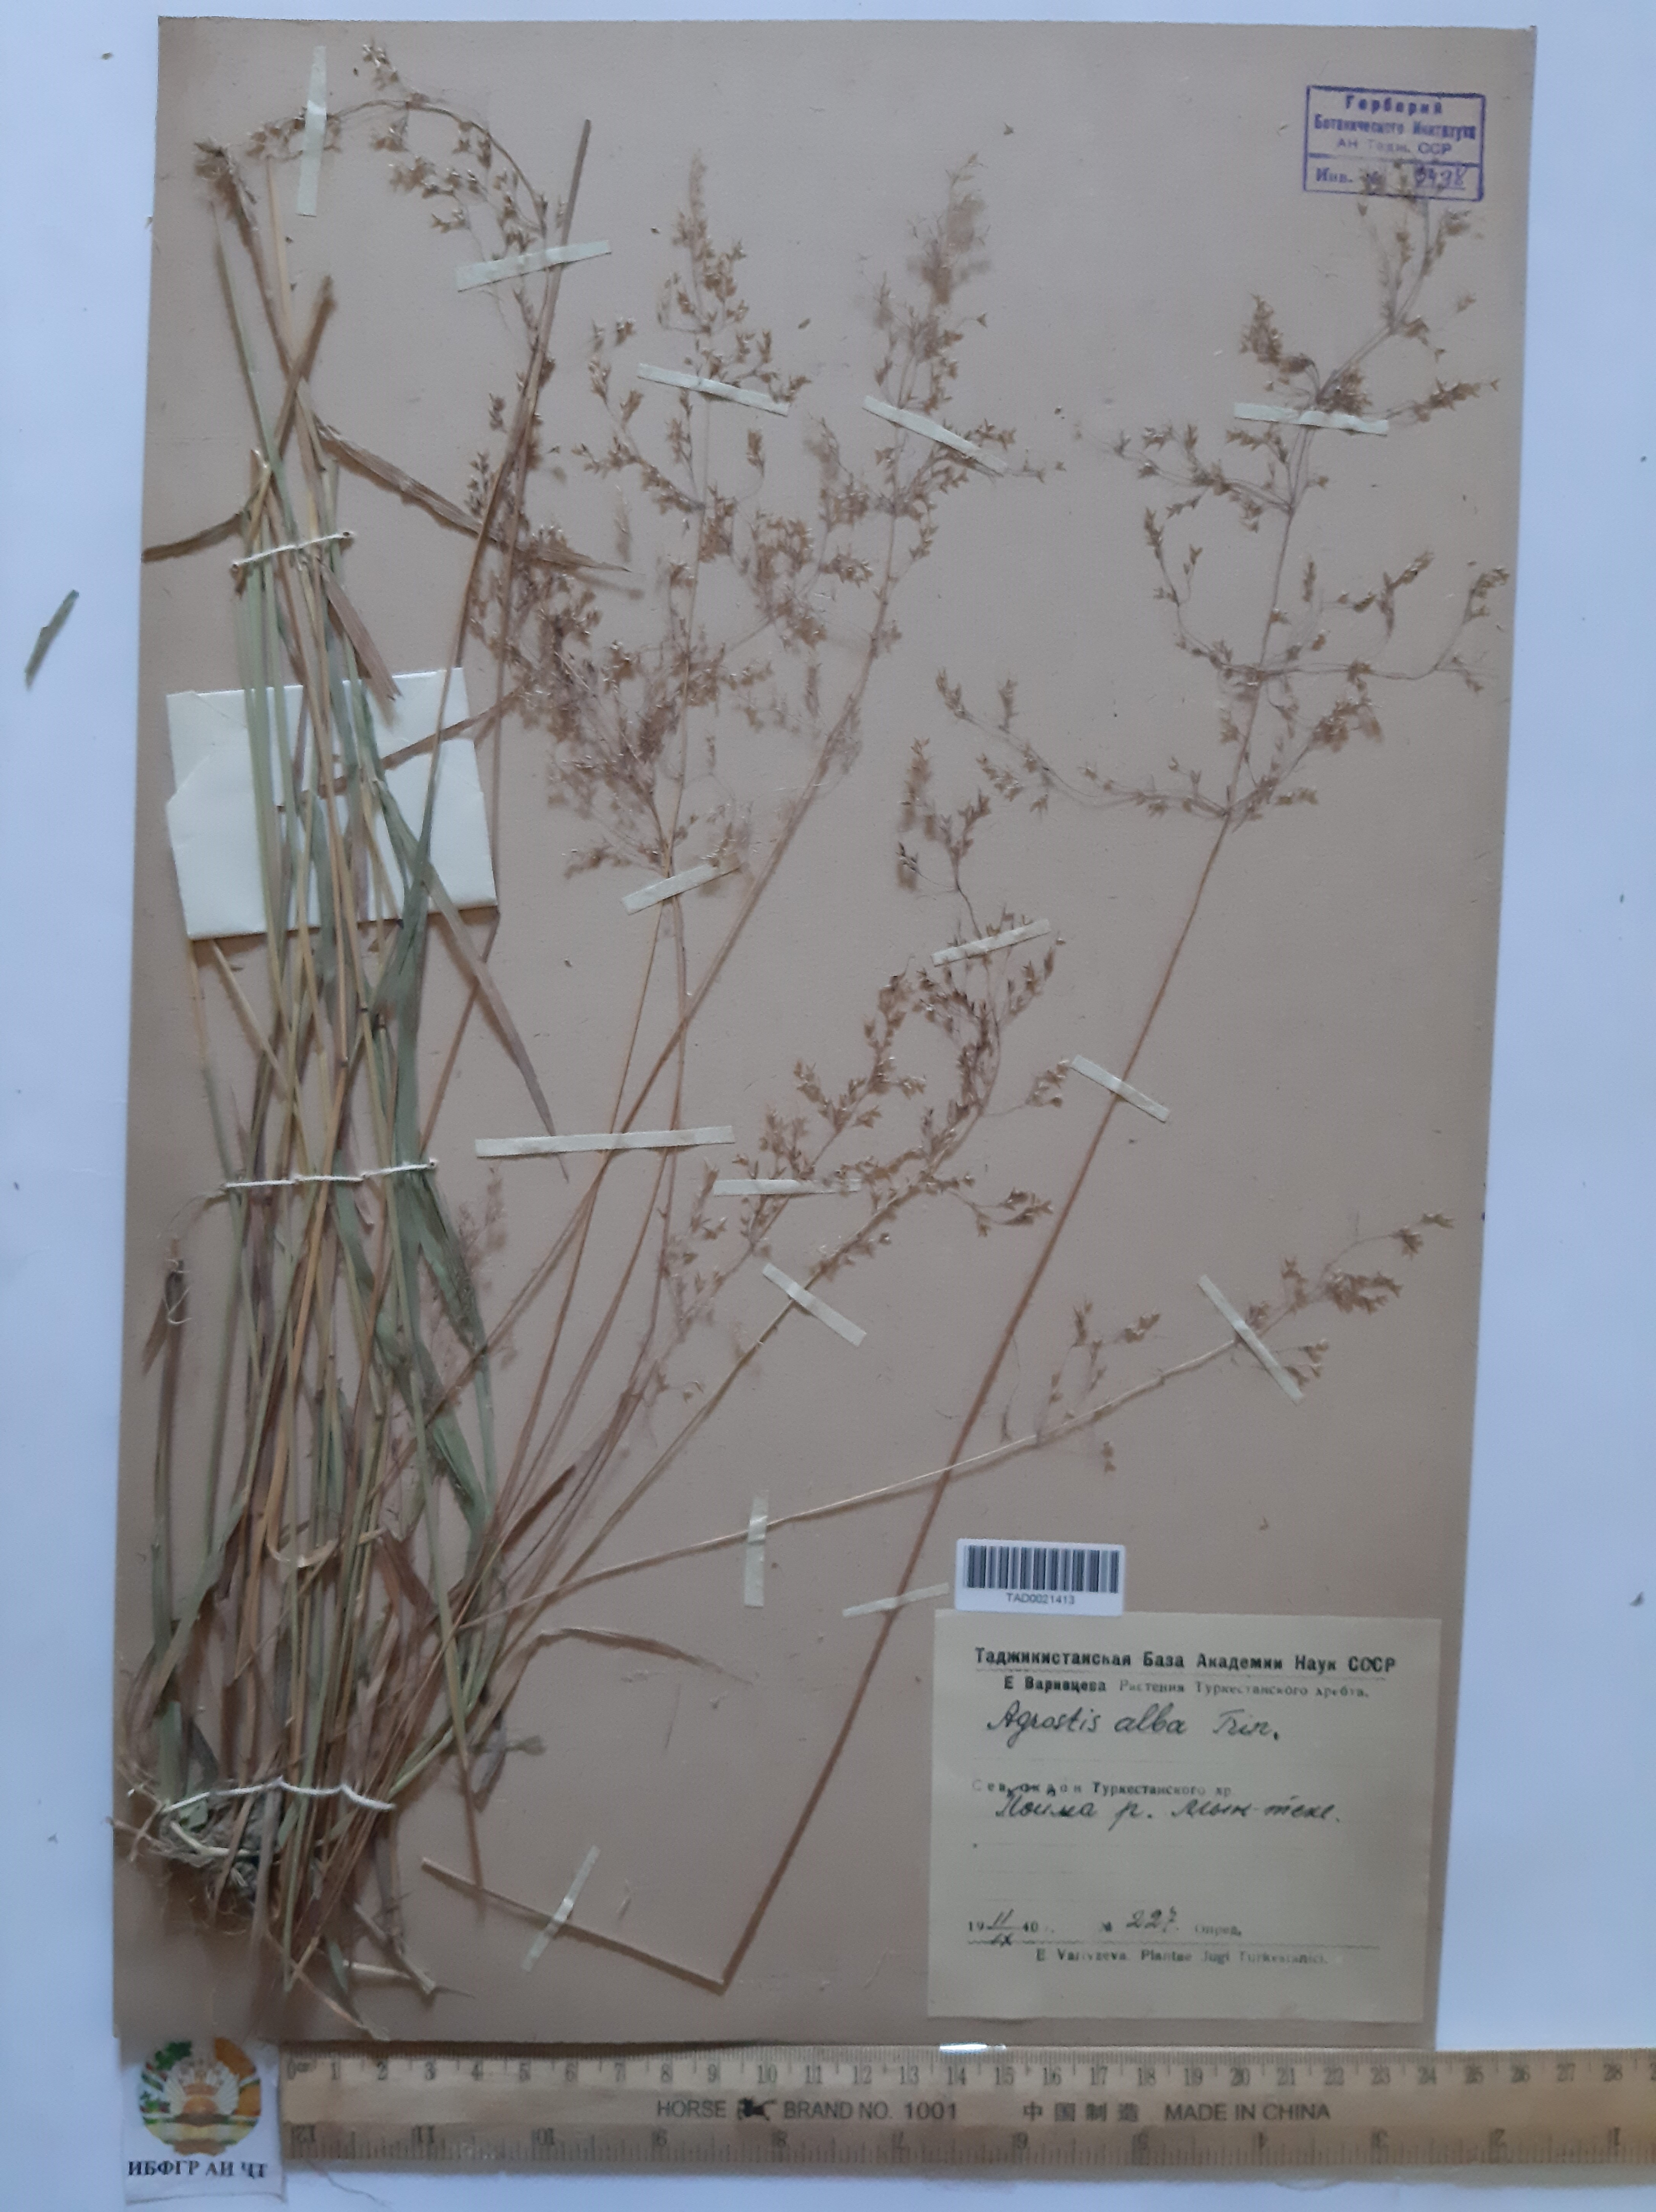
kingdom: Plantae
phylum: Tracheophyta
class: Liliopsida
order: Poales
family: Poaceae
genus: Poa
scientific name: Poa nemoralis
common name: Wood bluegrass
